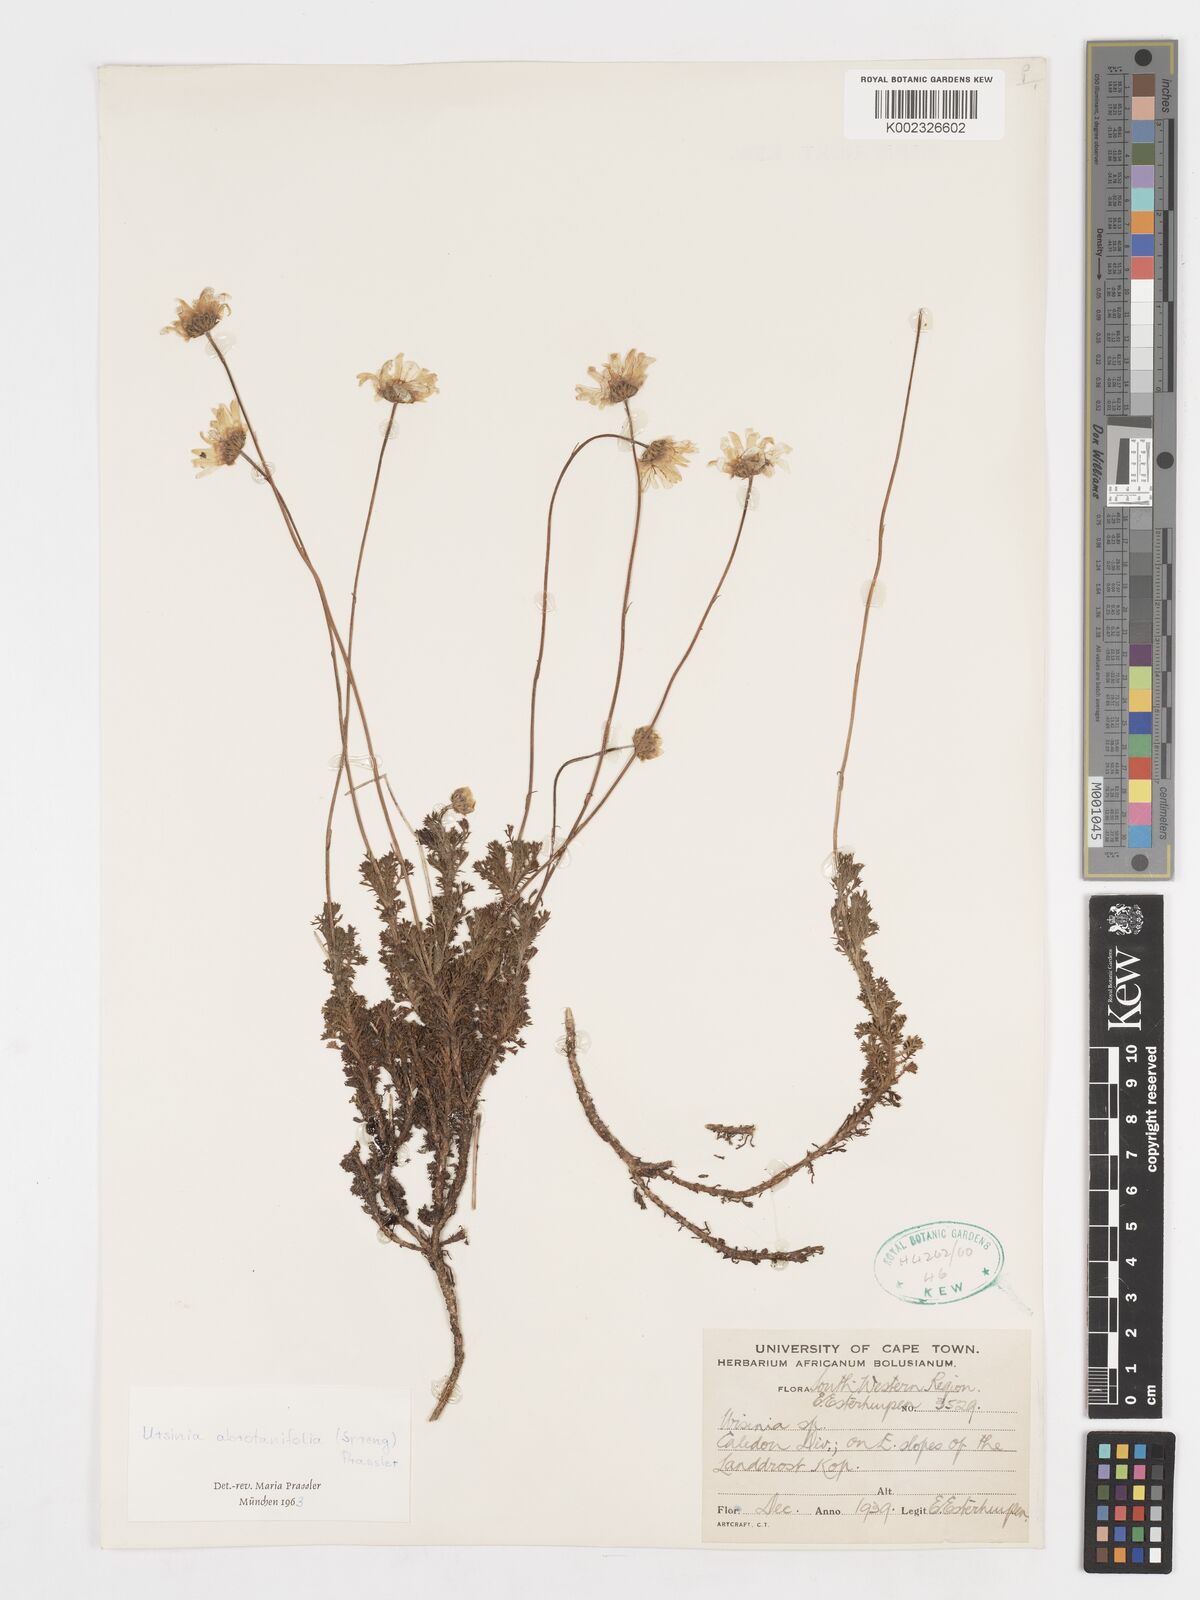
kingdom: Plantae
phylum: Tracheophyta
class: Magnoliopsida
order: Asterales
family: Asteraceae
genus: Ursinia
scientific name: Ursinia abrotanifolia
